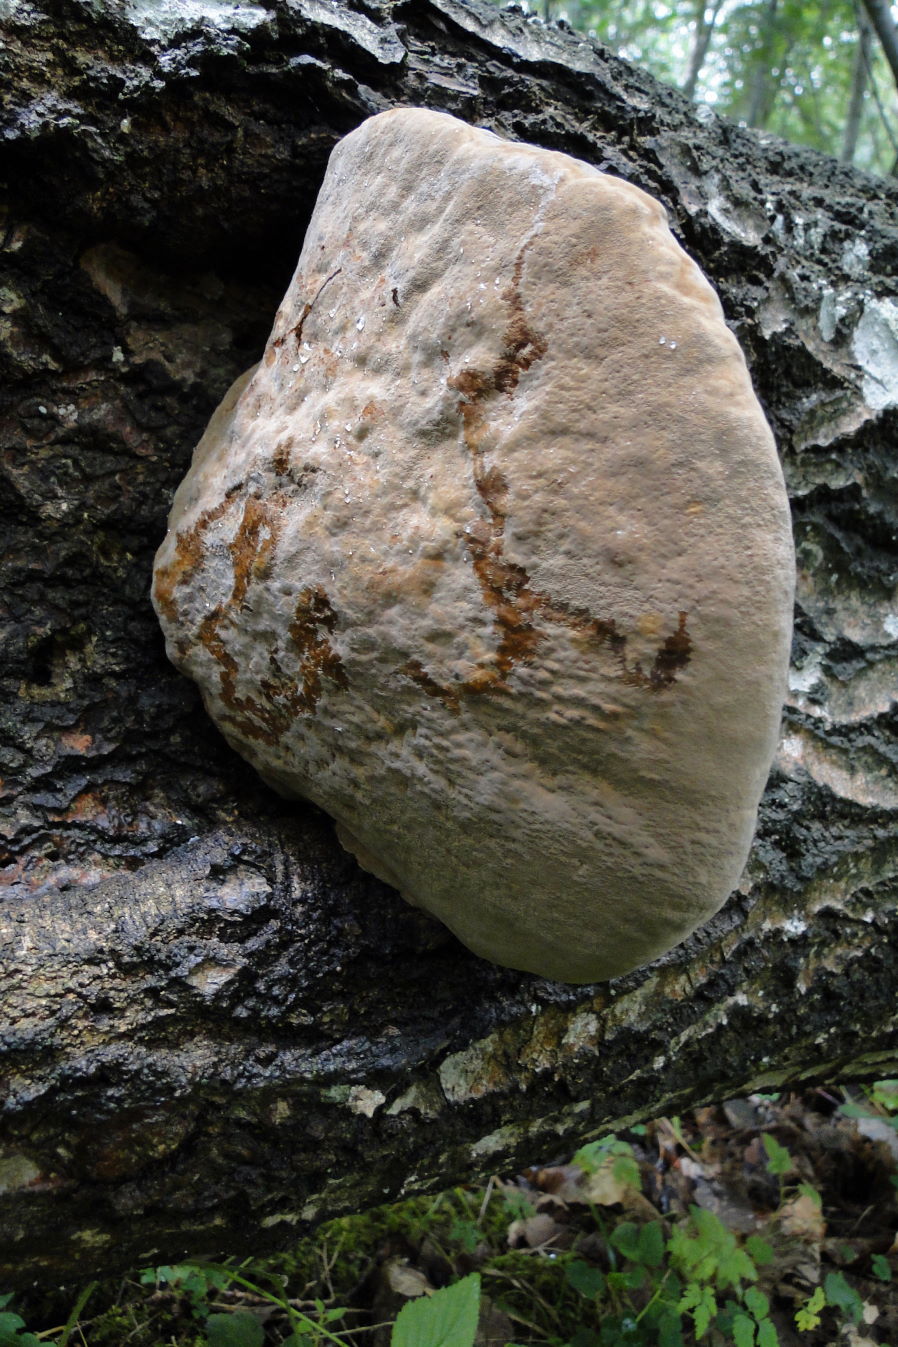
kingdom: Fungi
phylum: Basidiomycota
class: Agaricomycetes
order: Hymenochaetales
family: Hymenochaetaceae
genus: Phellinus
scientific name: Phellinus populicola
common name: poppel-ildporesvamp
